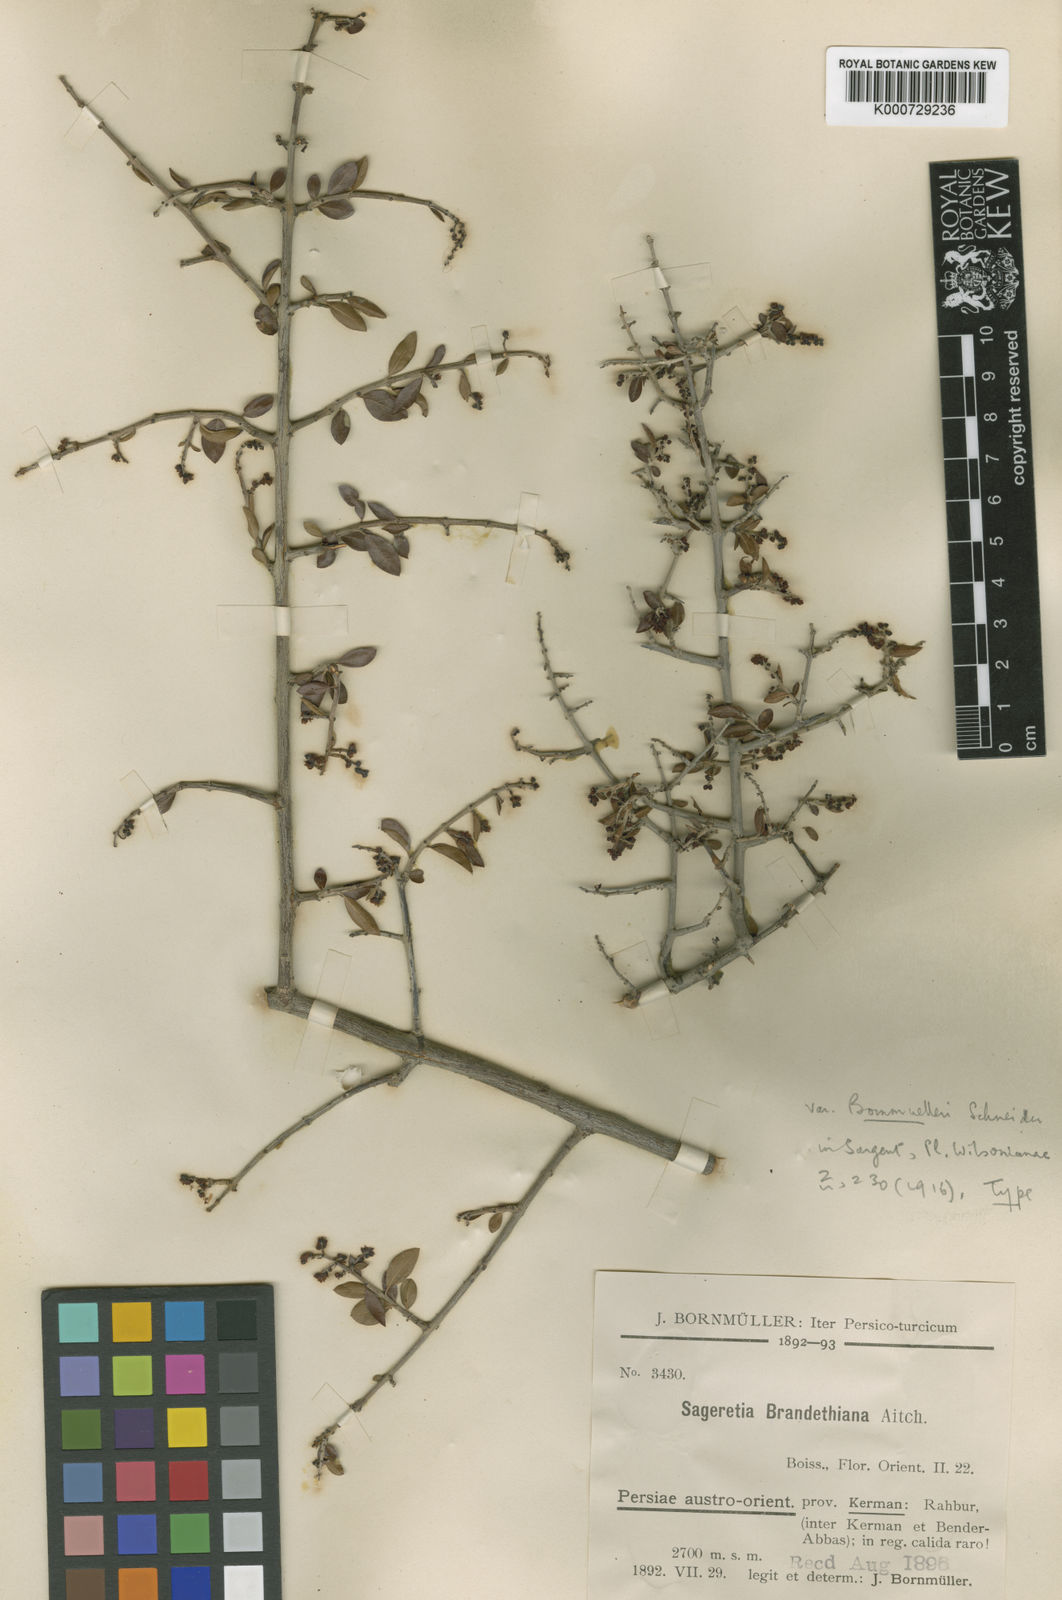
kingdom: Plantae
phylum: Tracheophyta
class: Magnoliopsida
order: Rosales
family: Rhamnaceae
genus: Sageretia
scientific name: Sageretia thea
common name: Pauper's-tea
